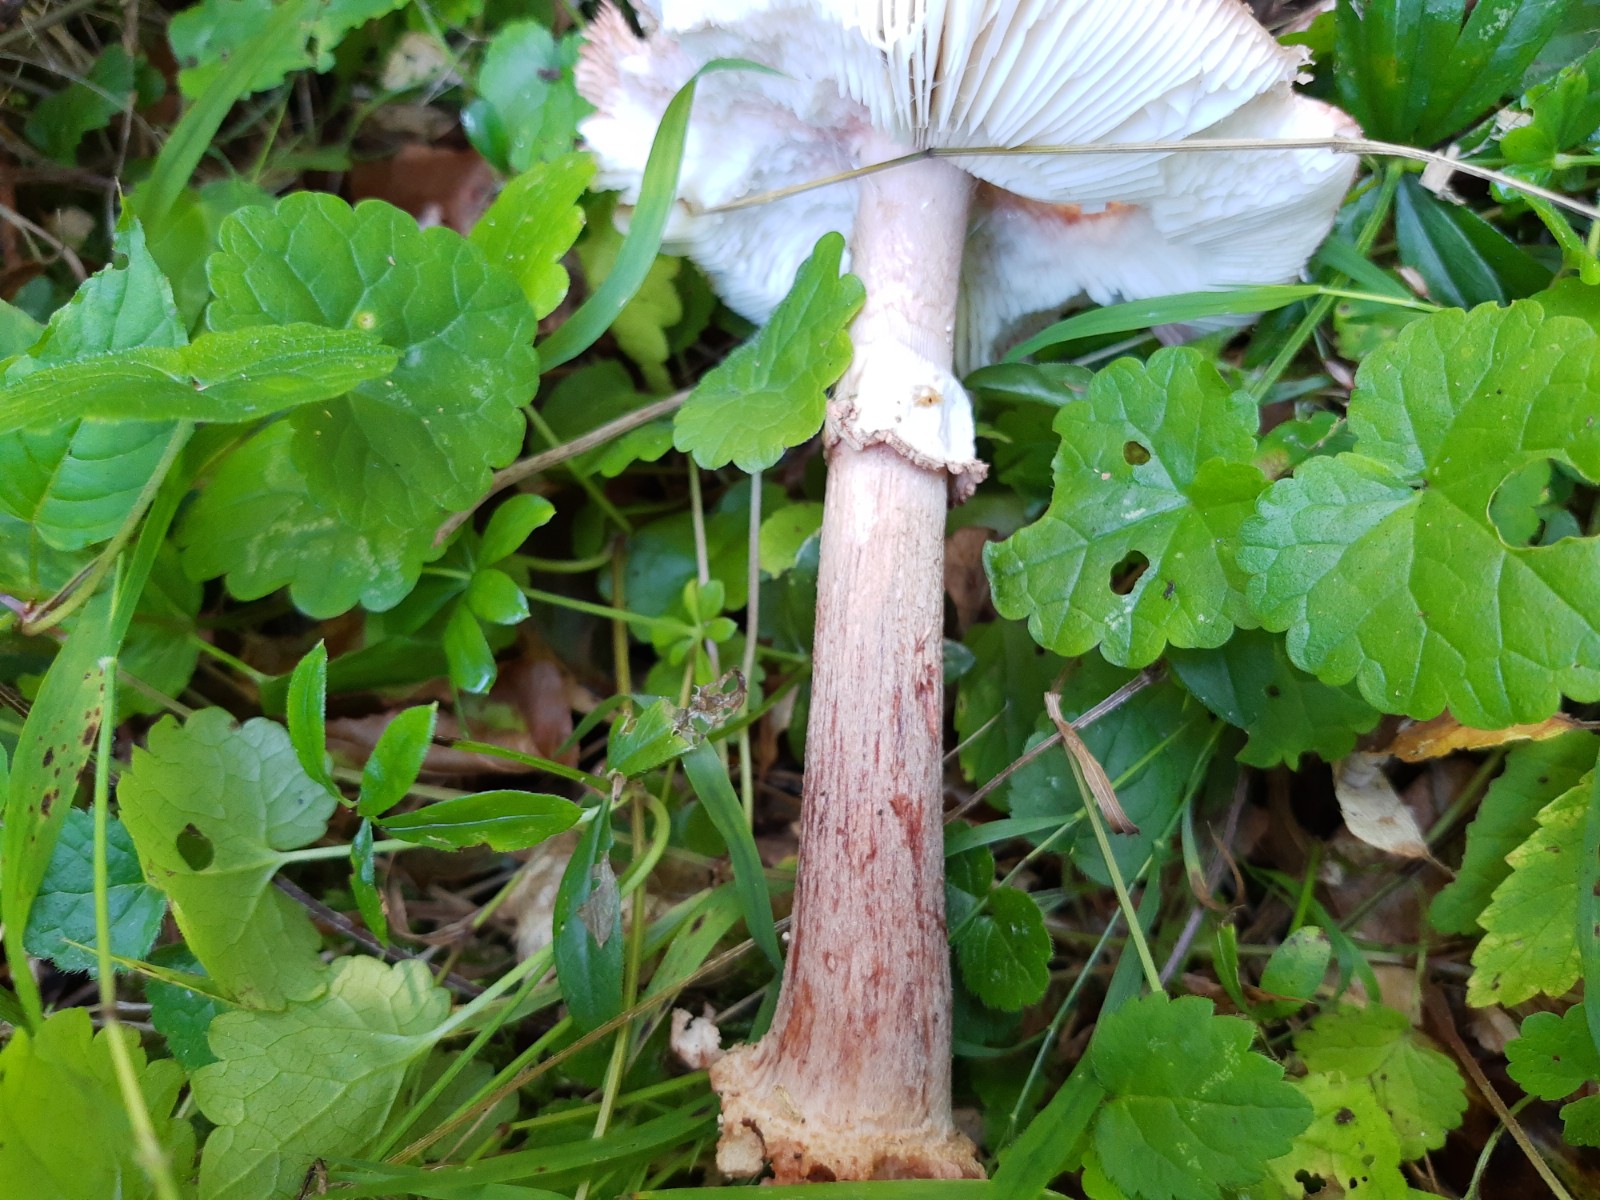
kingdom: Fungi
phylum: Basidiomycota
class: Agaricomycetes
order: Agaricales
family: Amanitaceae
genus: Amanita
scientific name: Amanita rubescens
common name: rødmende fluesvamp
